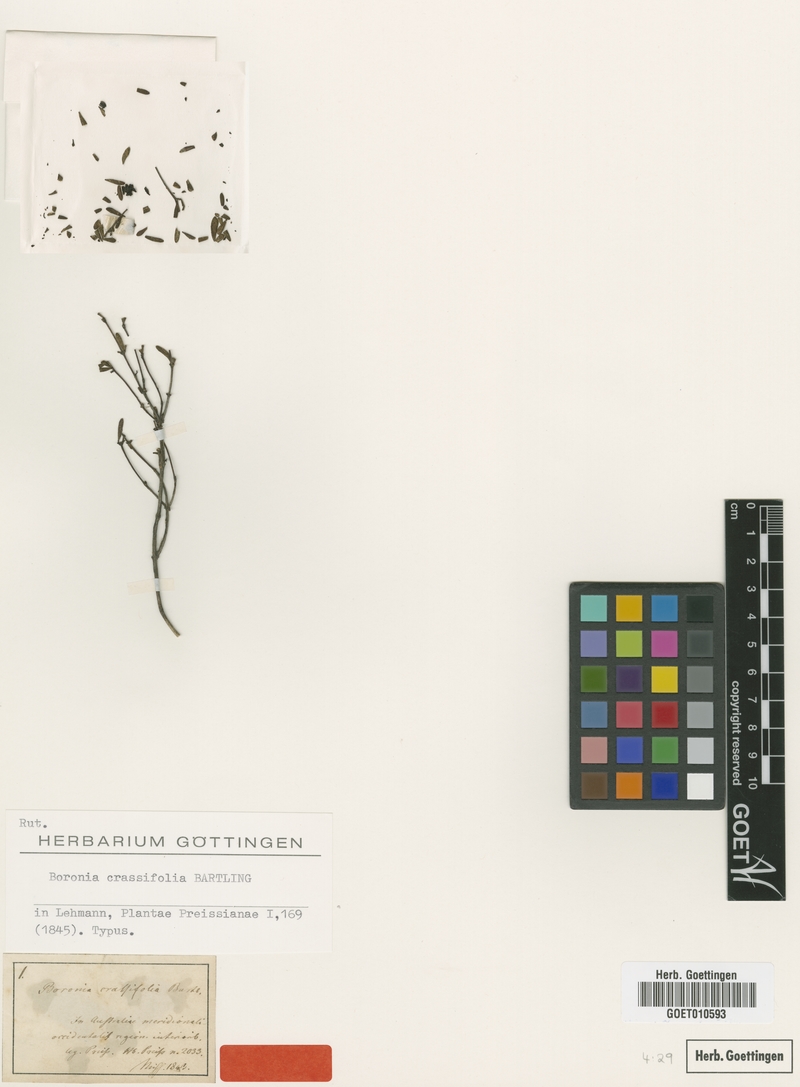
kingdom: Plantae
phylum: Tracheophyta
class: Magnoliopsida
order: Sapindales
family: Rutaceae
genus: Boronia
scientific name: Boronia crassifolia
